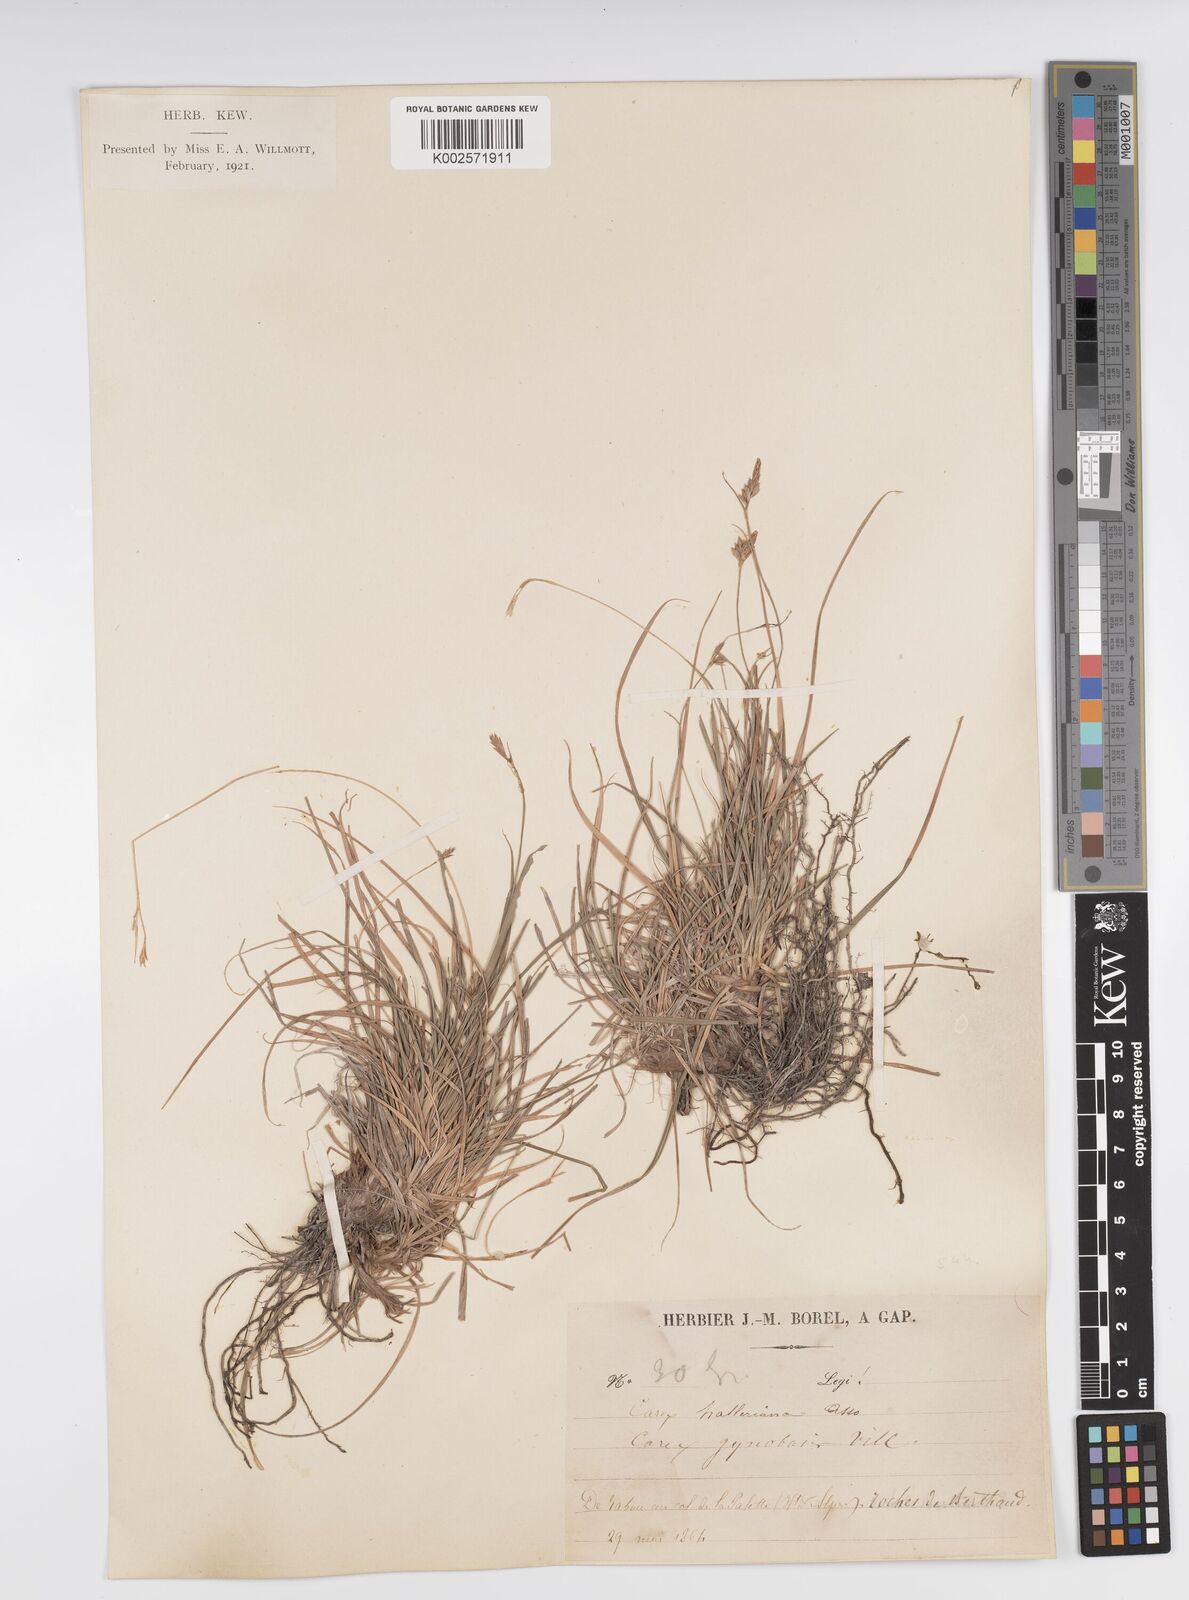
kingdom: Plantae
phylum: Tracheophyta
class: Liliopsida
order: Poales
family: Cyperaceae
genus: Carex
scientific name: Carex halleriana
